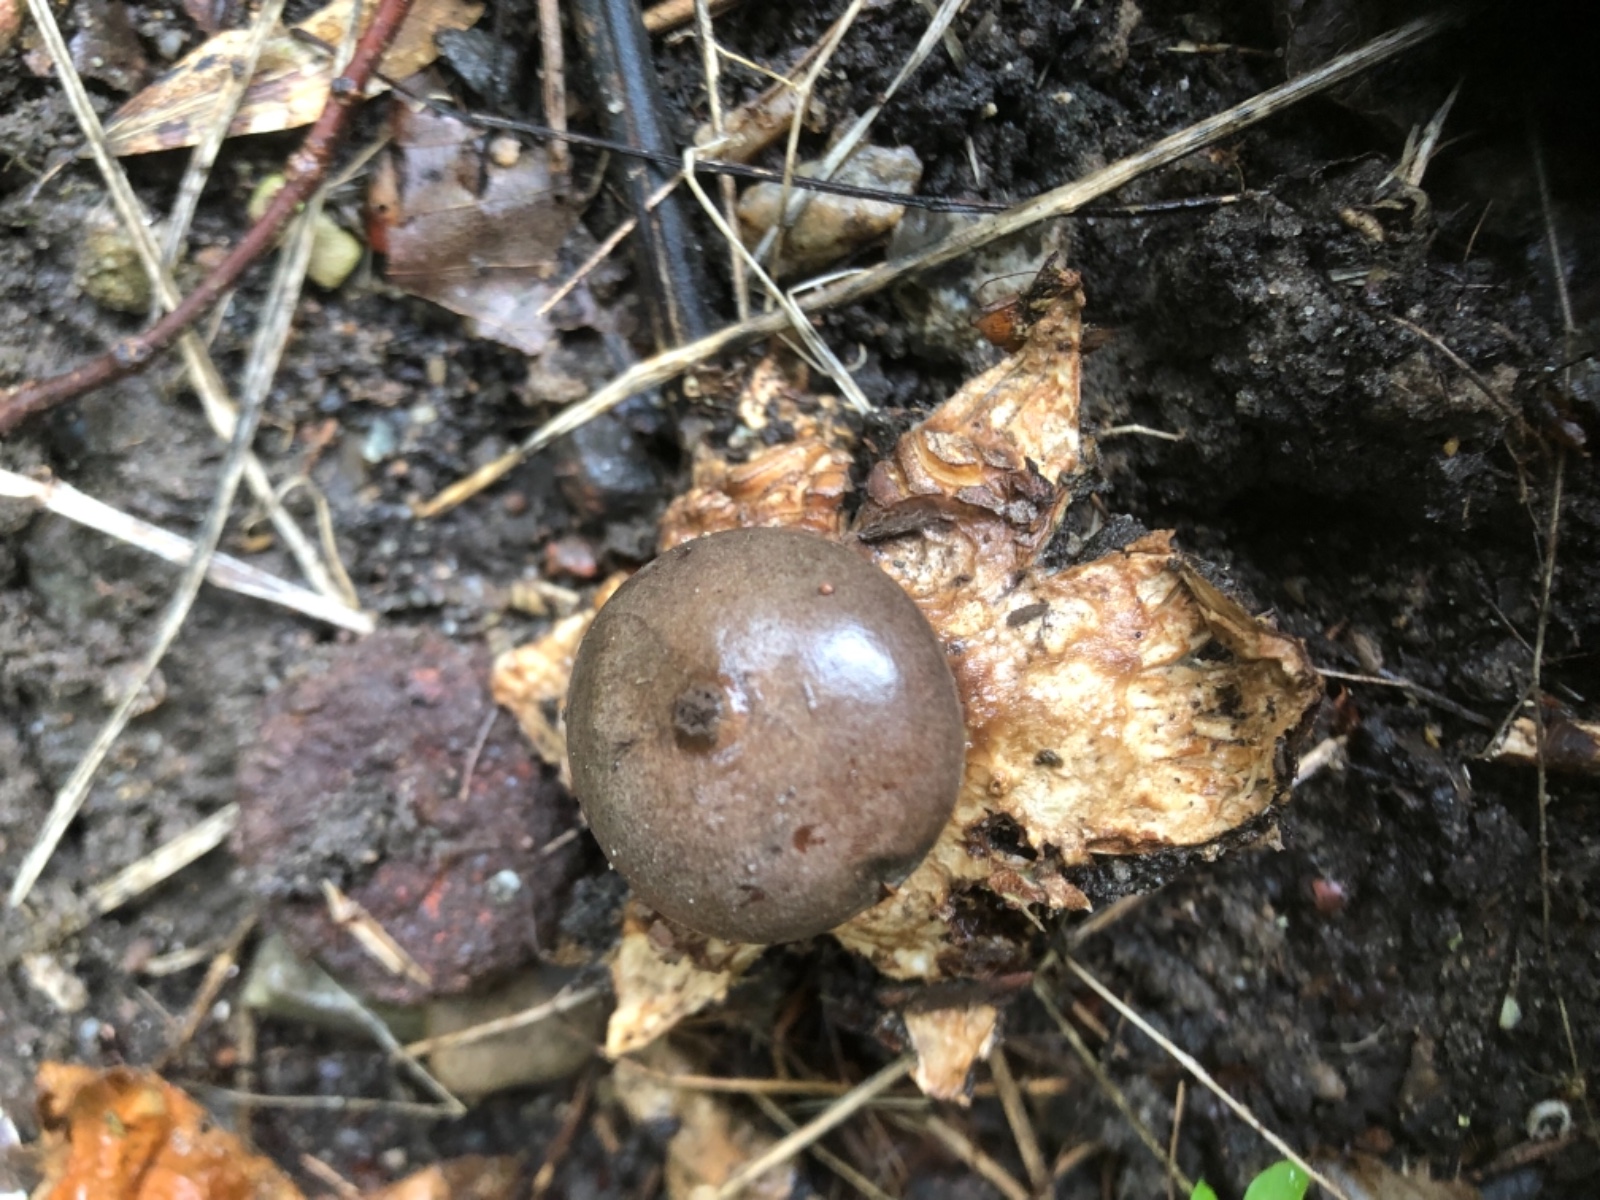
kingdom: Fungi
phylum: Basidiomycota
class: Agaricomycetes
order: Geastrales
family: Geastraceae
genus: Geastrum
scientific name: Geastrum
